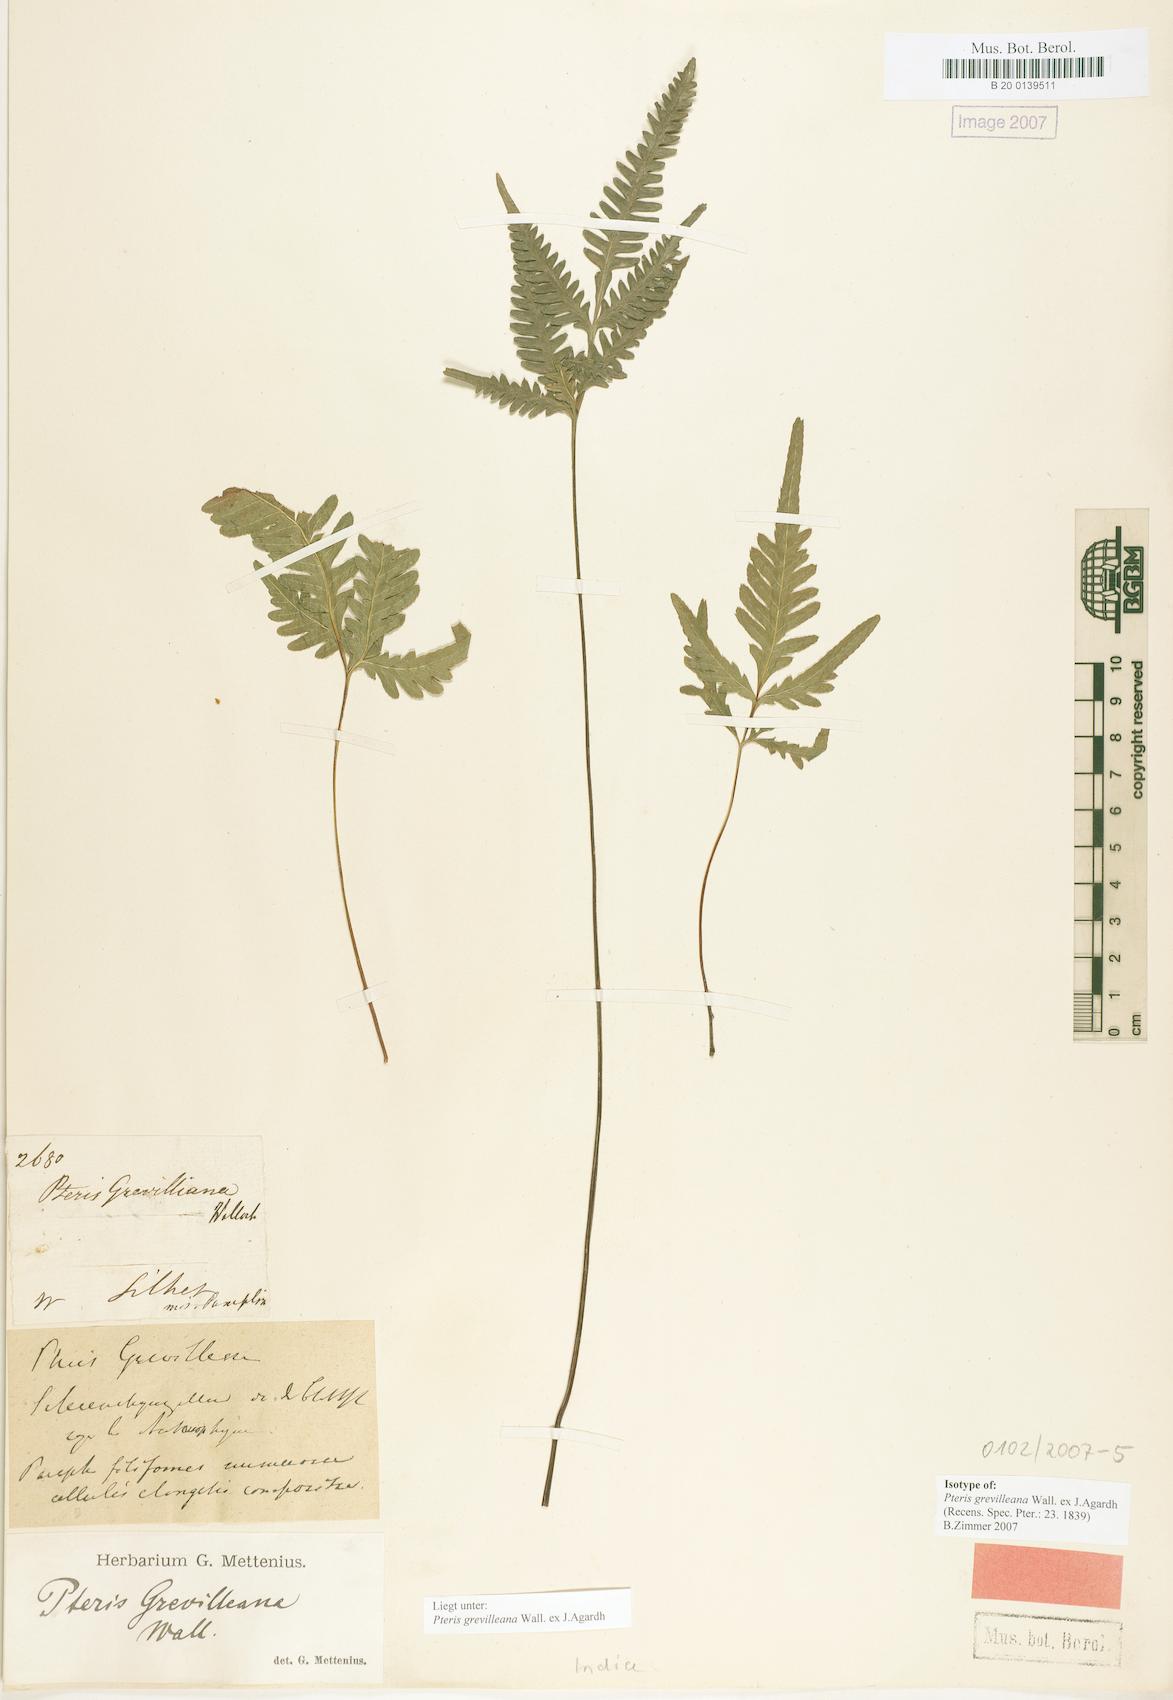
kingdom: Plantae
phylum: Tracheophyta
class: Polypodiopsida
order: Polypodiales
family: Pteridaceae
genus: Pteris
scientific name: Pteris grevilleana
